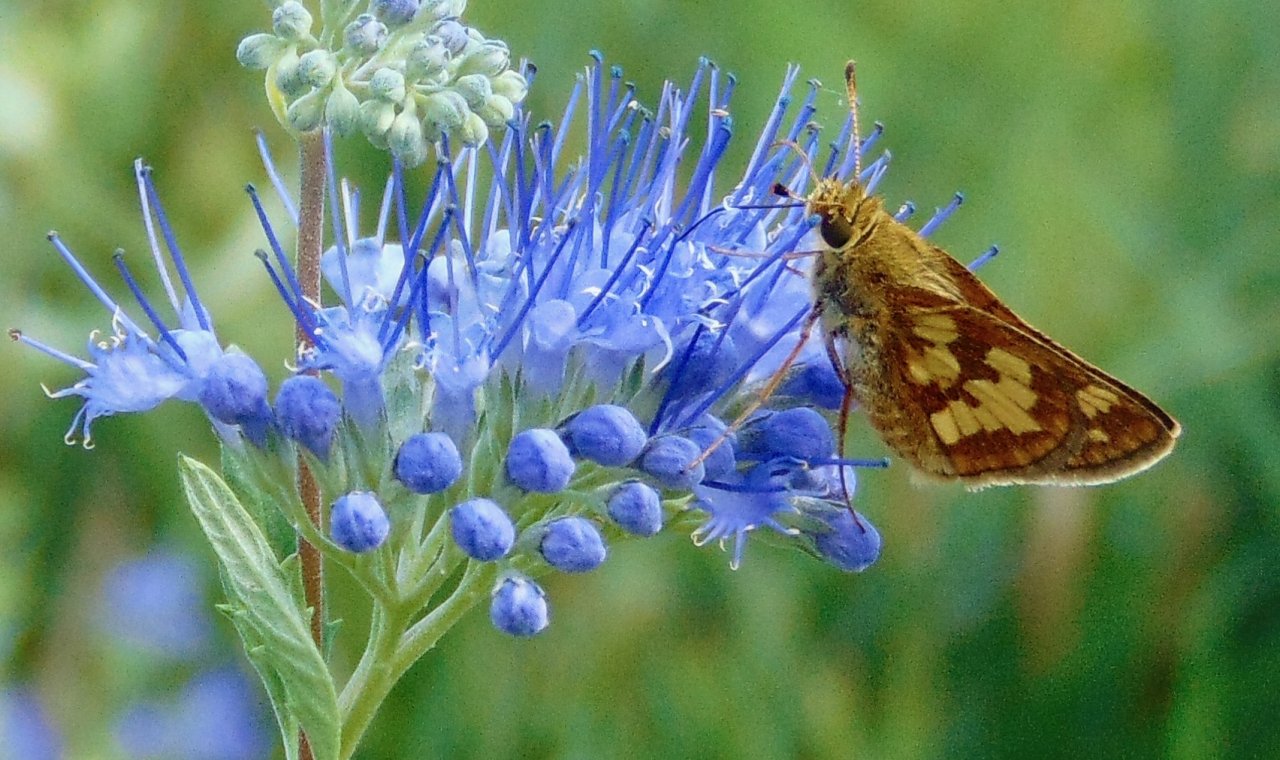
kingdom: Animalia
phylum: Arthropoda
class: Insecta
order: Lepidoptera
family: Hesperiidae
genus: Polites
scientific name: Polites coras
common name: Peck's Skipper
